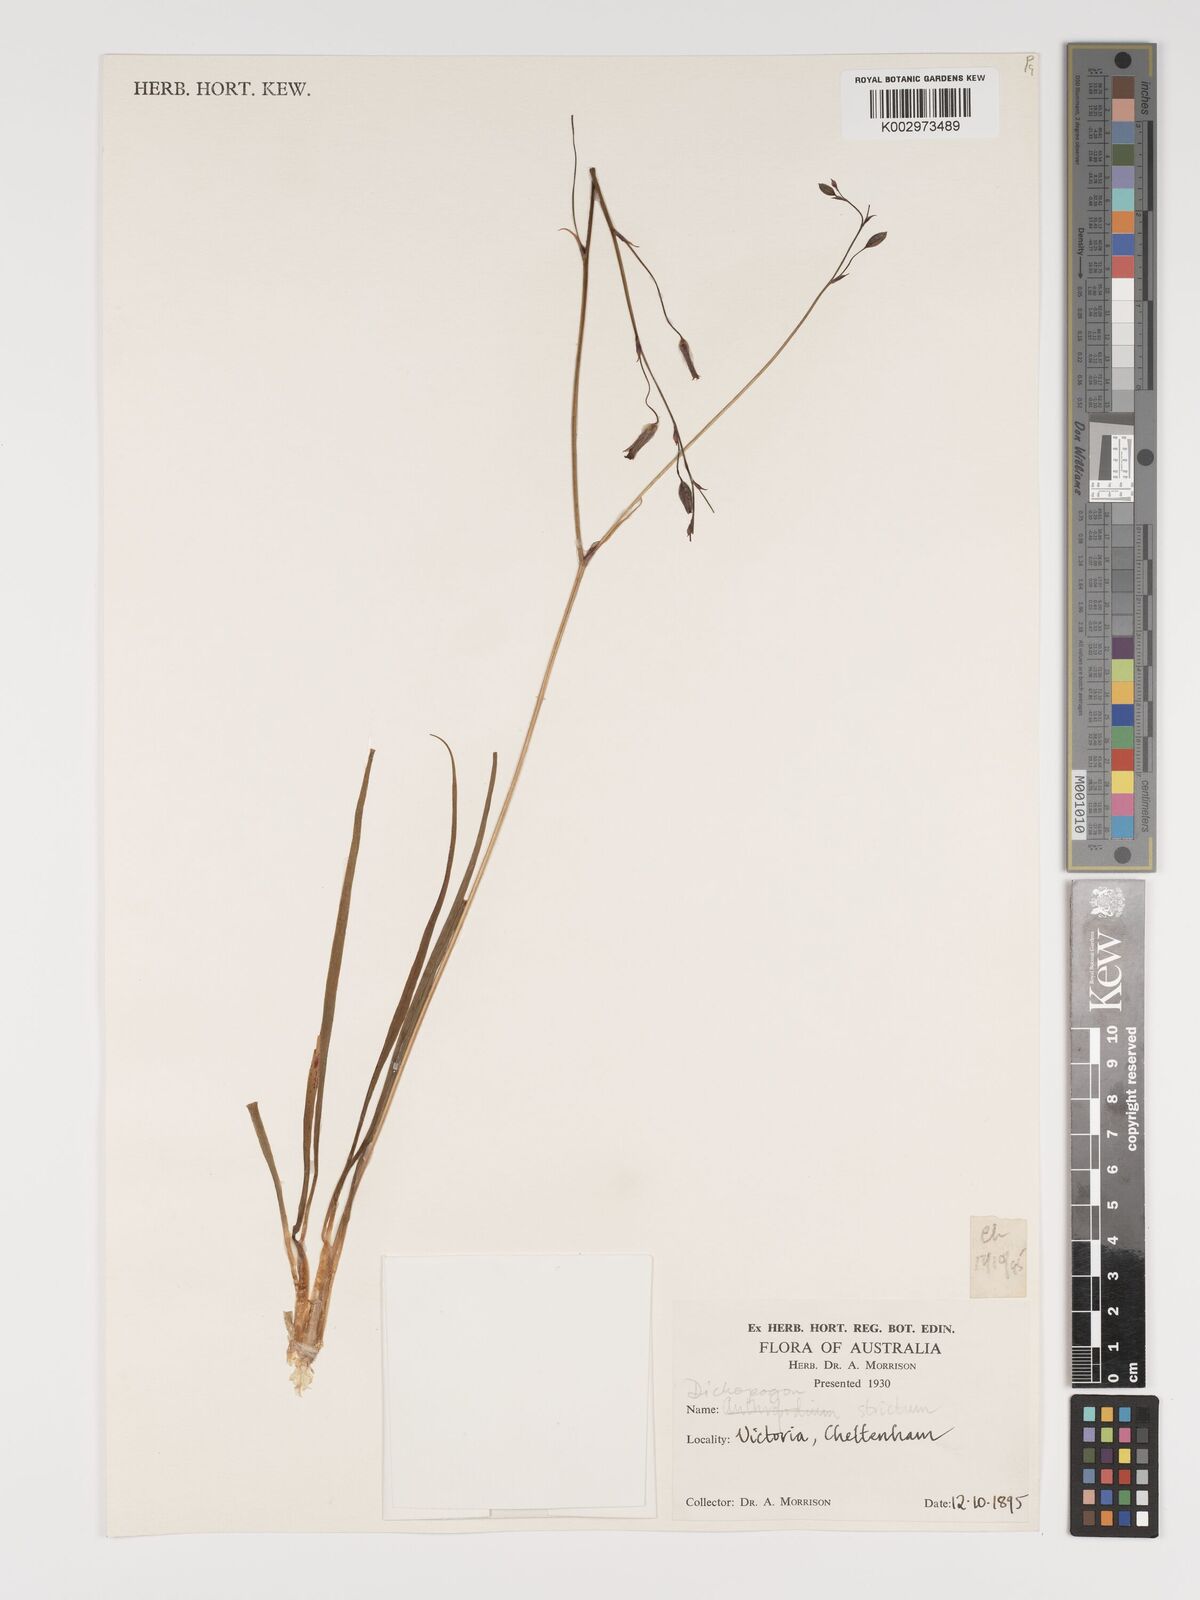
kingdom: Plantae
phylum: Tracheophyta
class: Liliopsida
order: Asparagales
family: Asparagaceae
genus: Arthropodium
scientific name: Arthropodium strictum
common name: Chocolate-lily
